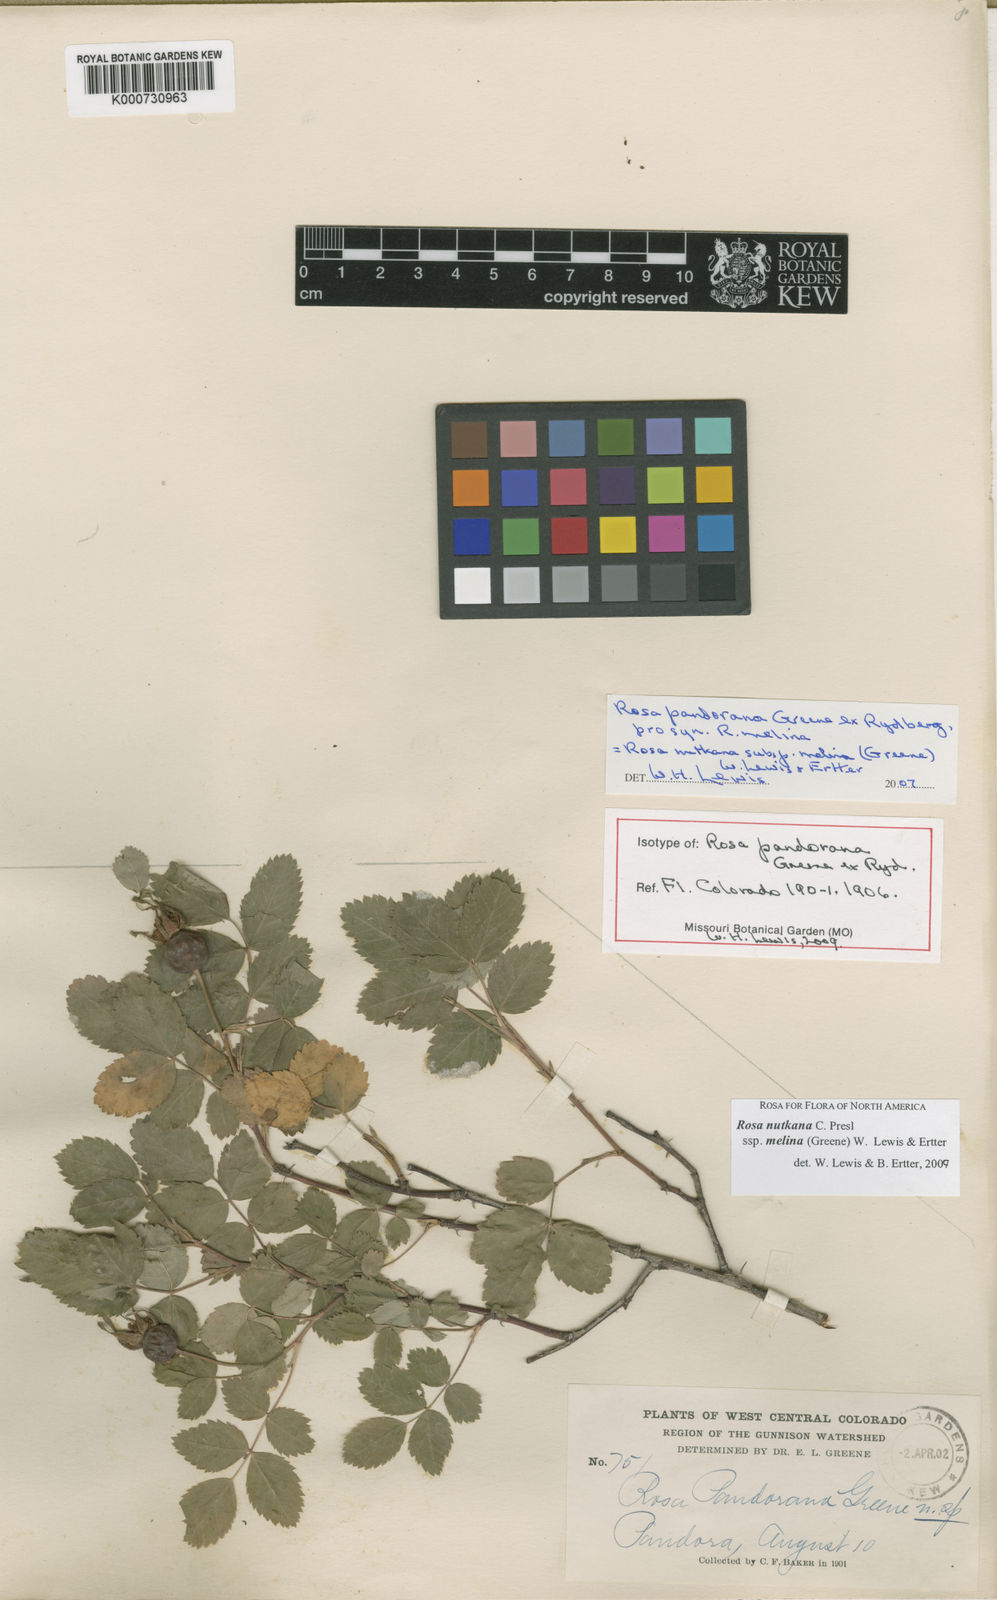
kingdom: Plantae
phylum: Tracheophyta
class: Magnoliopsida
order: Rosales
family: Rosaceae
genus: Rosa
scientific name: Rosa nutkana
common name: Nootka rose
